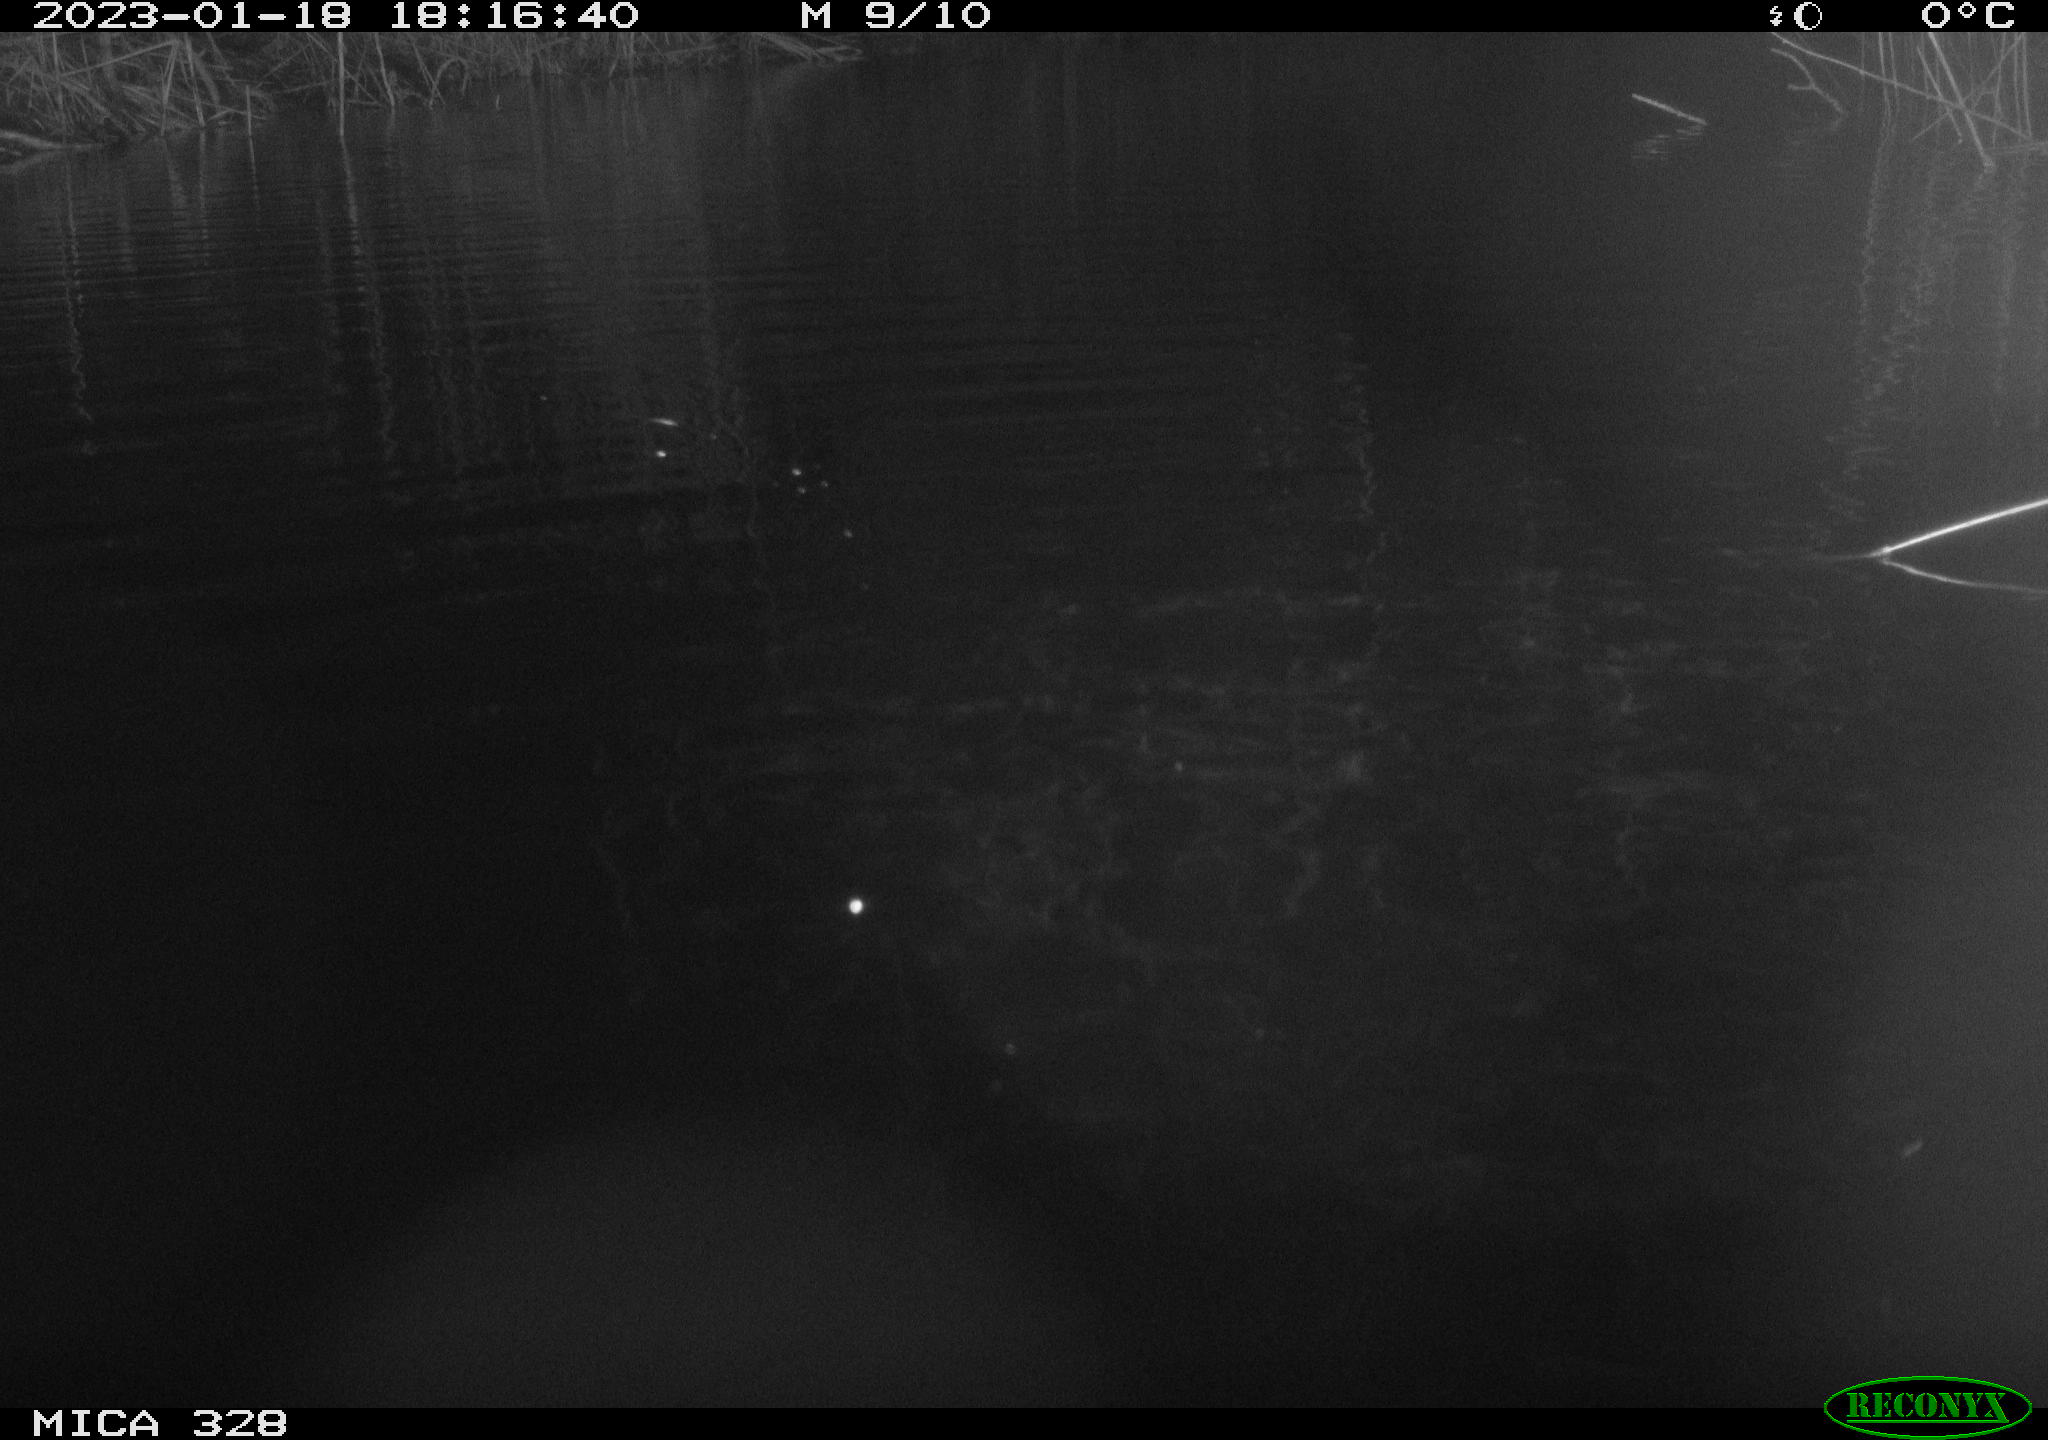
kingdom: Animalia
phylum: Chordata
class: Mammalia
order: Rodentia
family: Cricetidae
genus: Ondatra
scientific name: Ondatra zibethicus
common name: Muskrat
